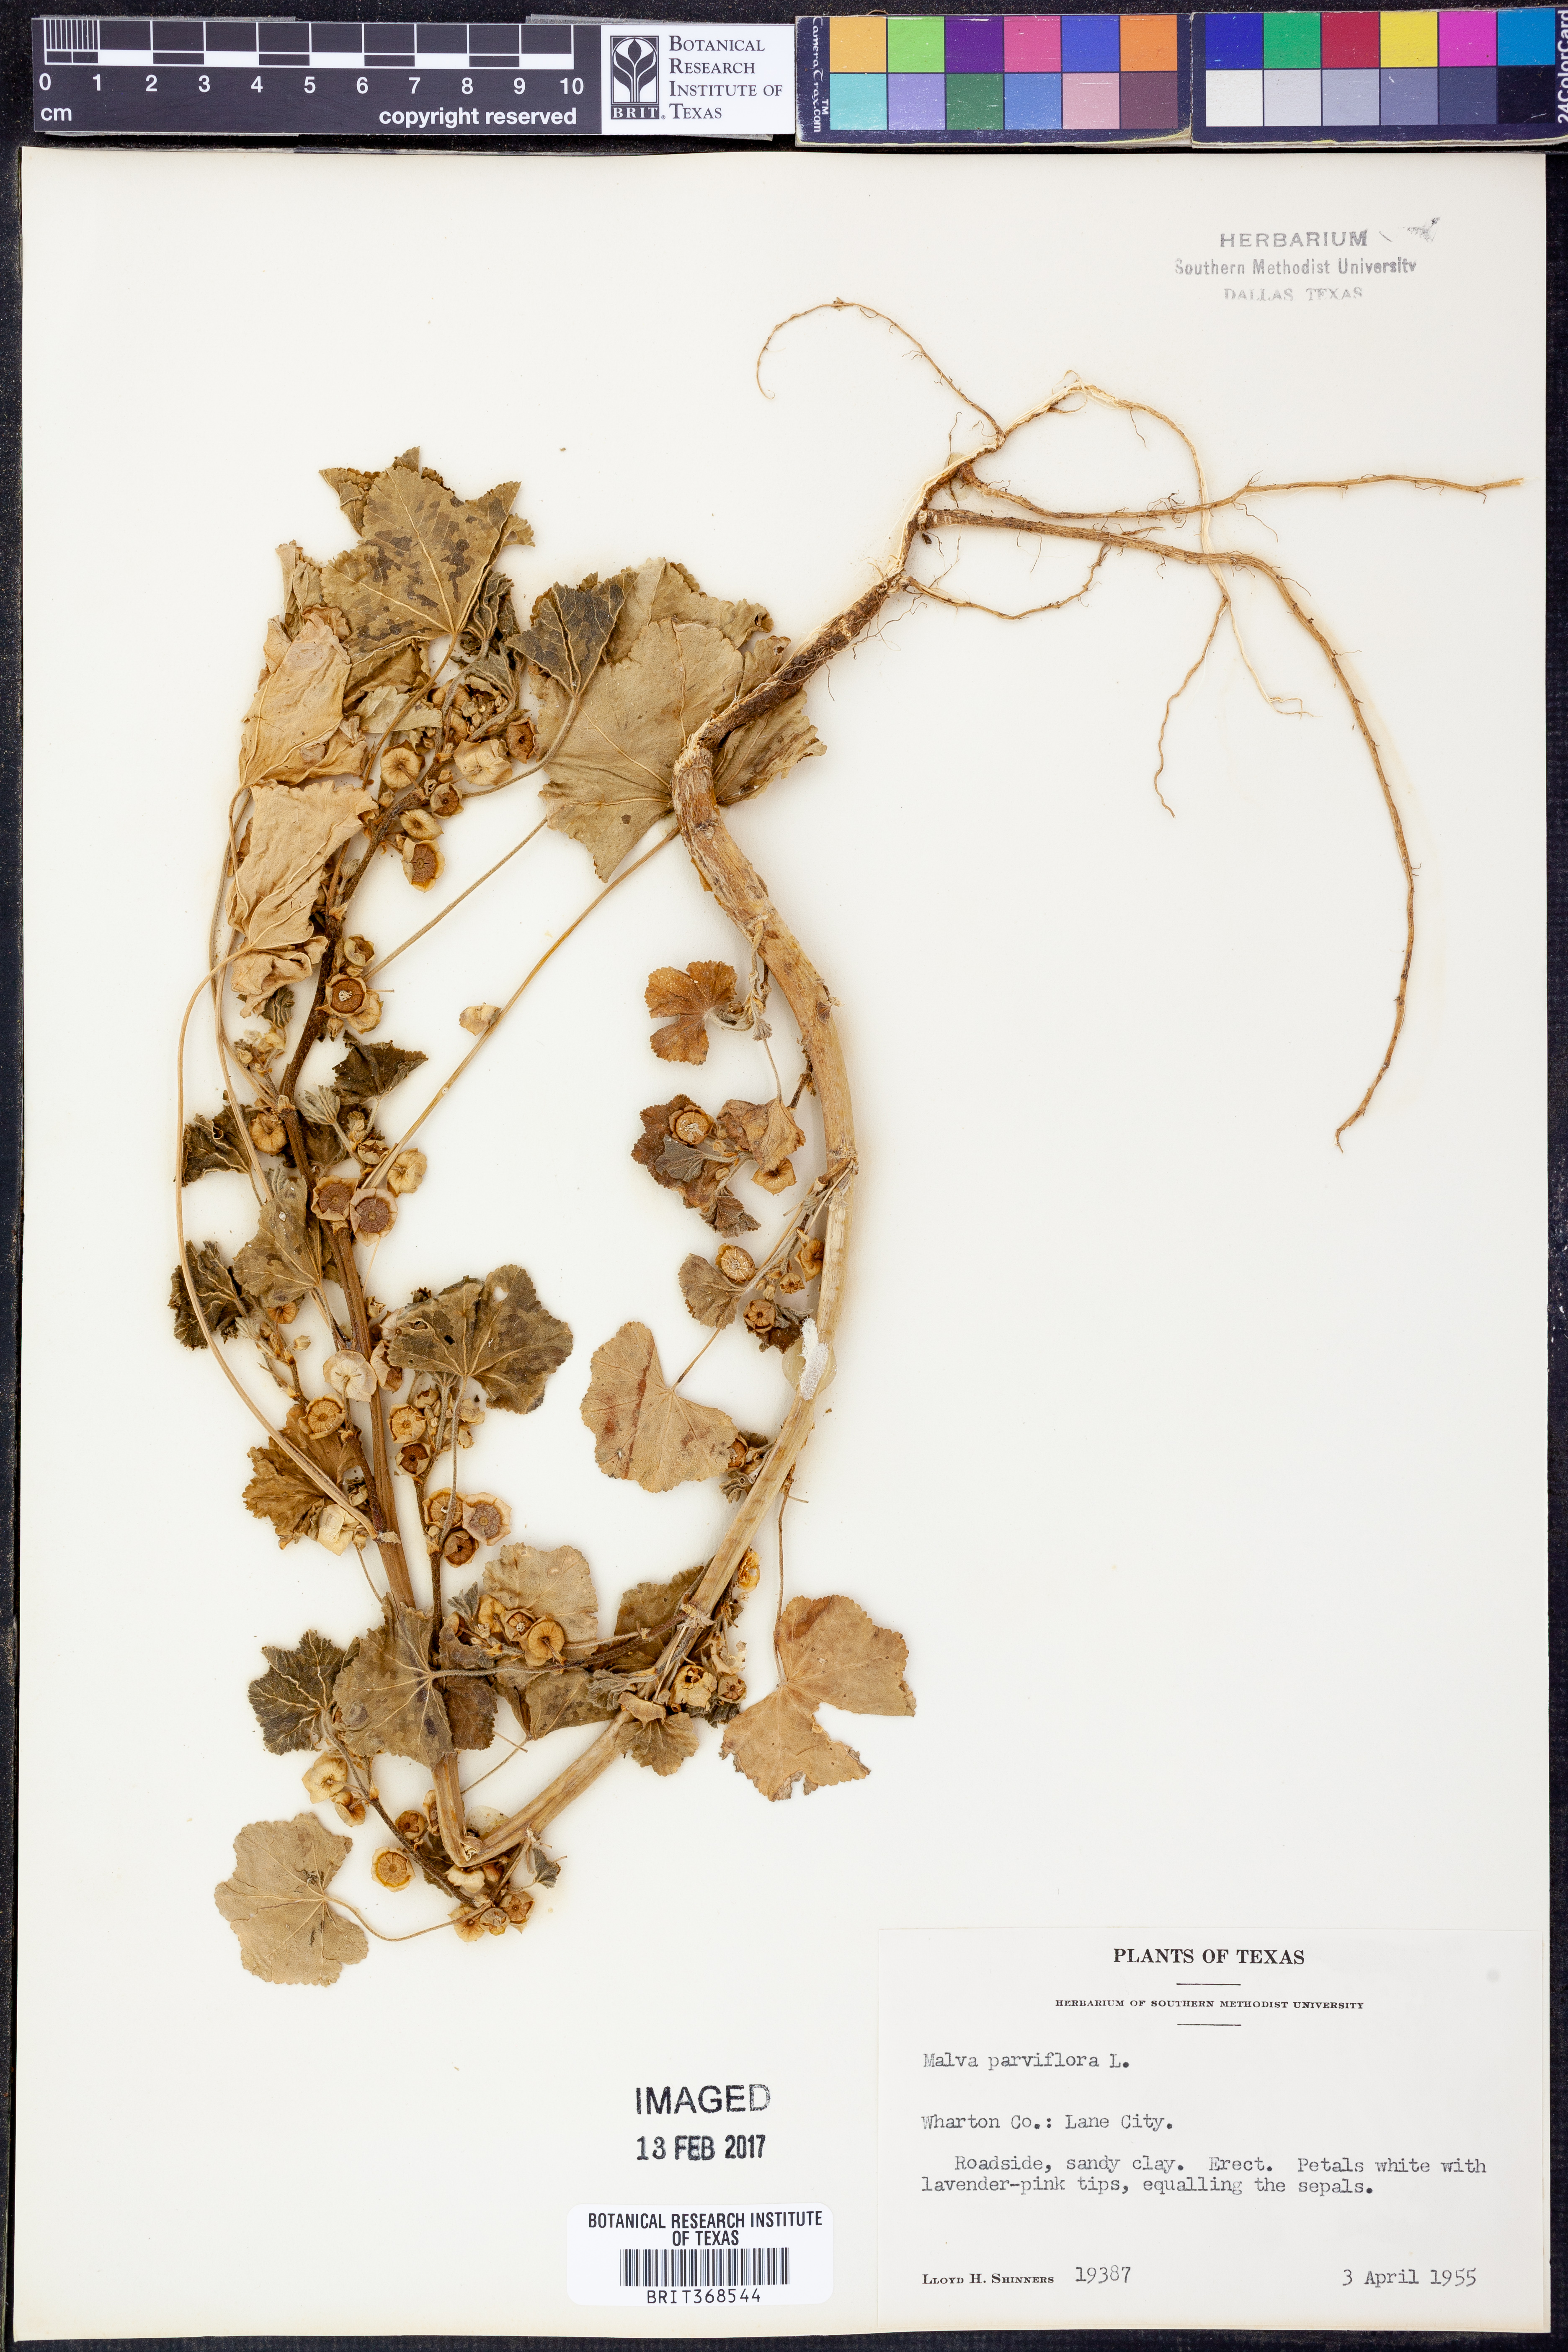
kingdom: Plantae
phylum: Tracheophyta
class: Magnoliopsida
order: Malvales
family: Malvaceae
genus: Malva
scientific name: Malva parviflora
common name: Least mallow
